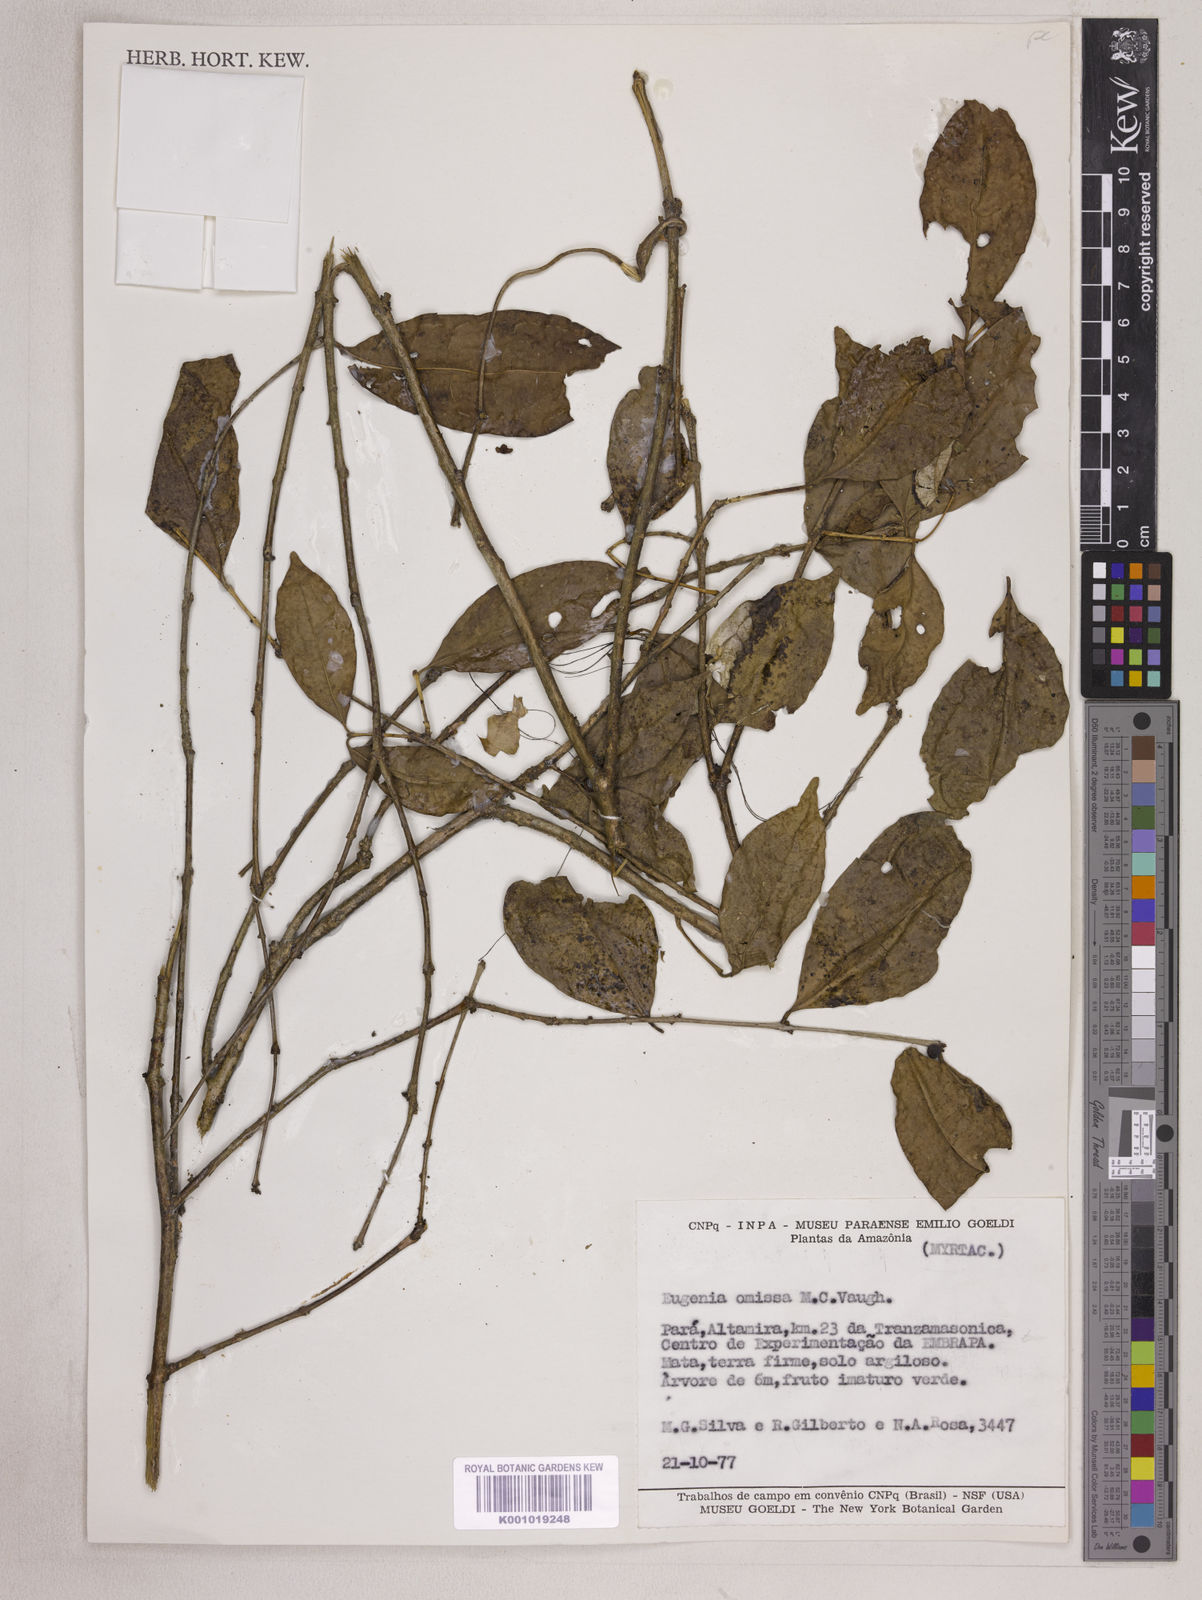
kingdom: Plantae
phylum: Tracheophyta
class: Magnoliopsida
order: Myrtales
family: Myrtaceae
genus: Eugenia
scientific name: Eugenia omissa
